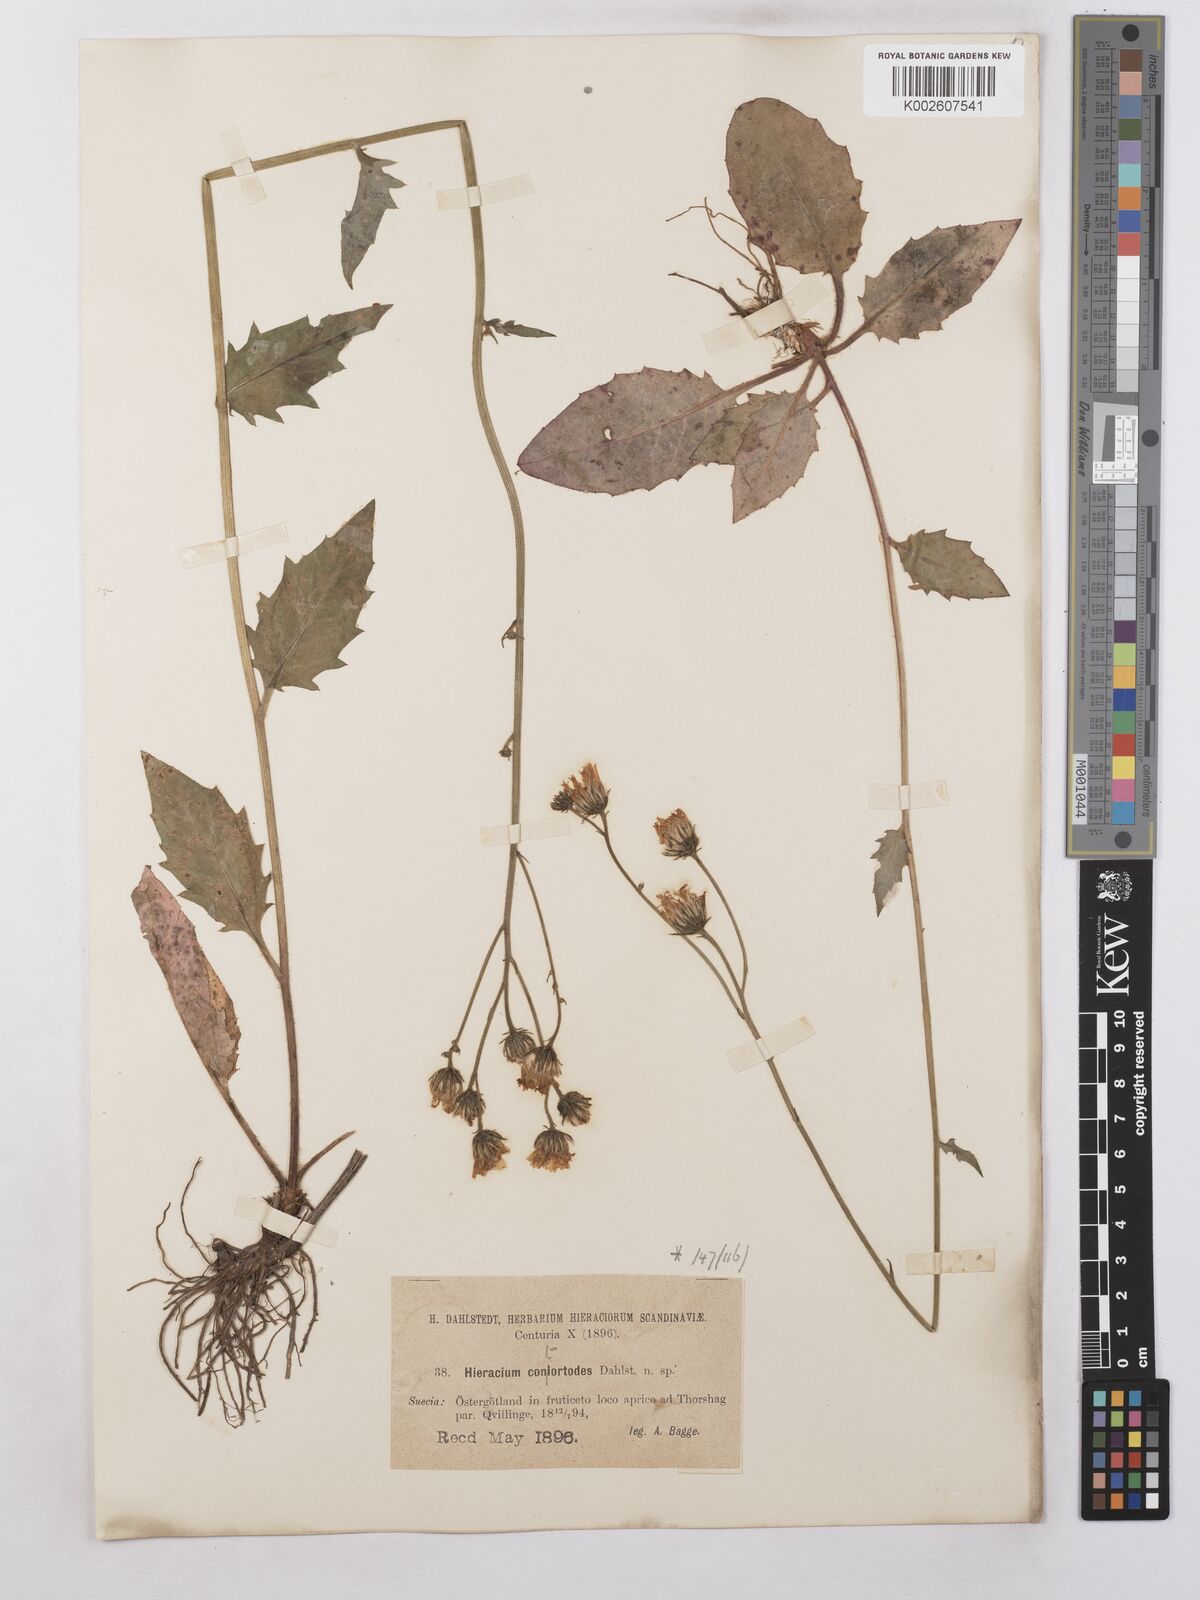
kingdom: Plantae
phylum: Tracheophyta
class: Magnoliopsida
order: Asterales
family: Asteraceae
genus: Hieracium
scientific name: Hieracium coniocephalum
